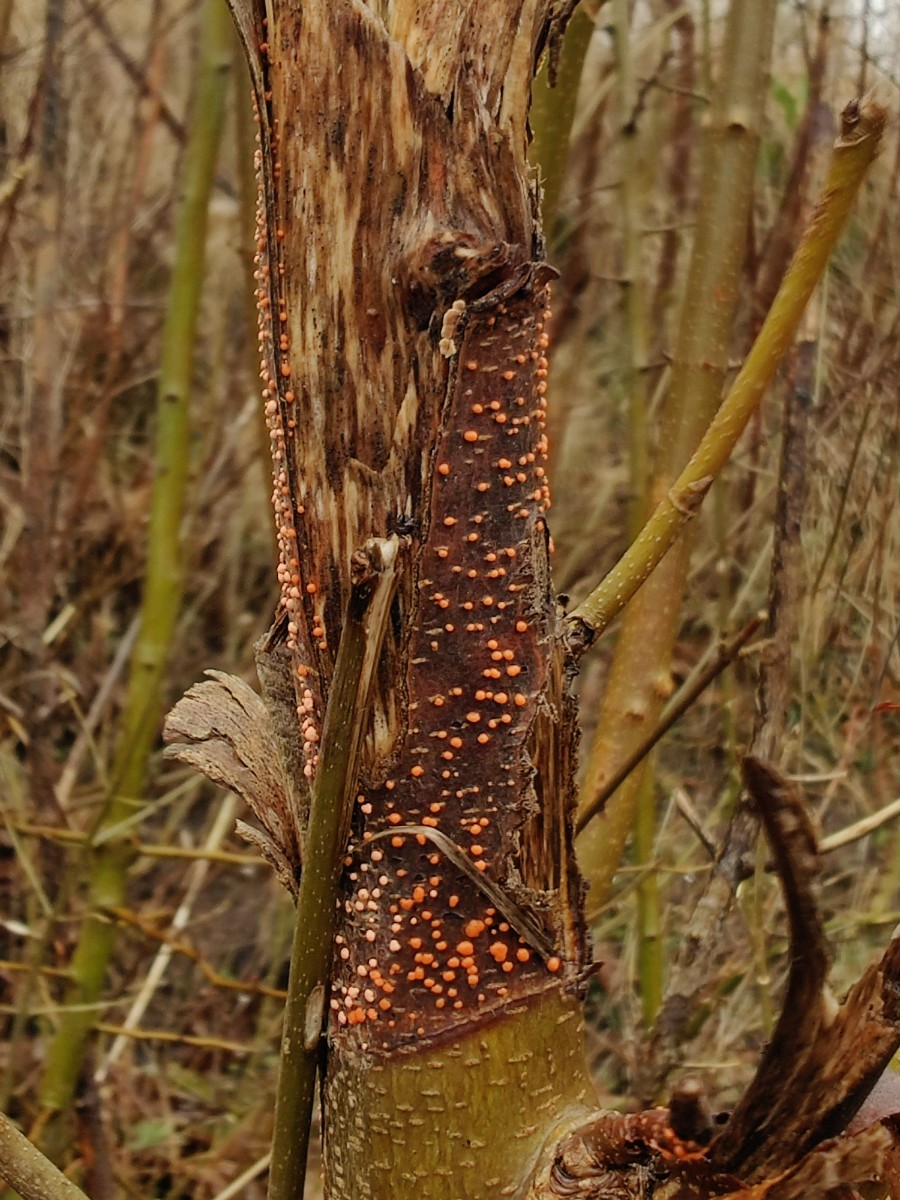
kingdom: Fungi
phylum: Ascomycota
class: Sordariomycetes
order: Hypocreales
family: Nectriaceae
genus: Nectria
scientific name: Nectria cinnabarina
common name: almindelig cinnobersvamp
